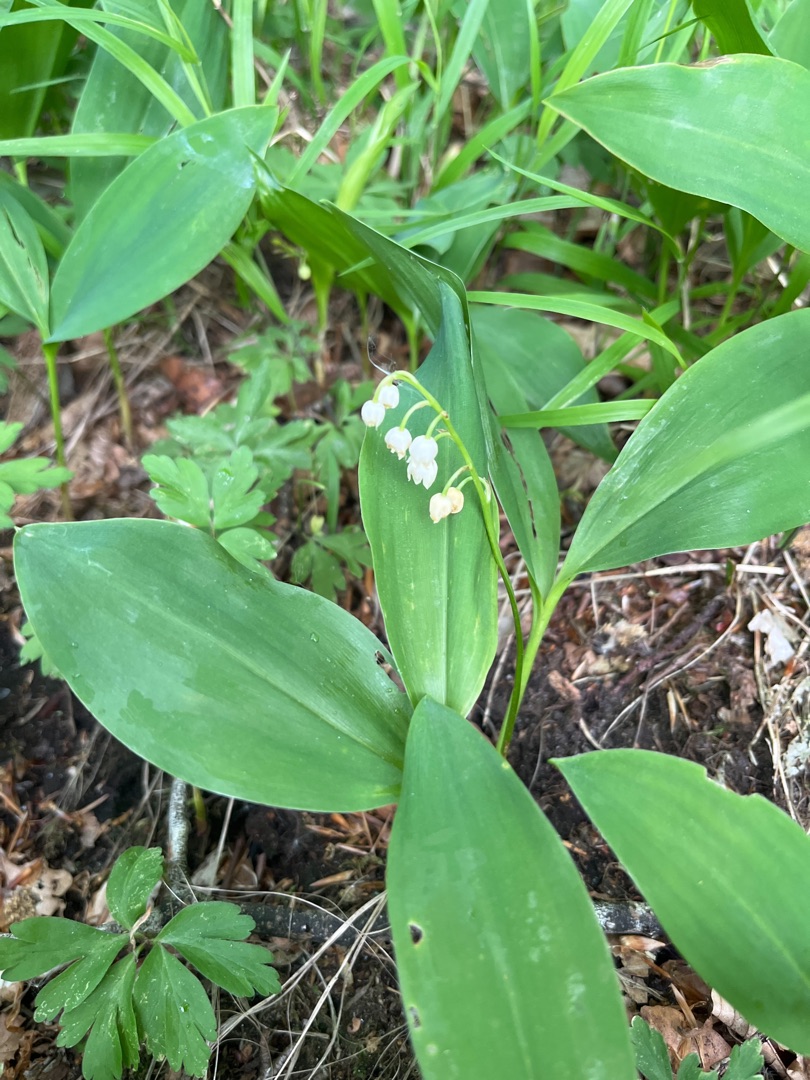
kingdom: Plantae
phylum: Tracheophyta
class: Liliopsida
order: Asparagales
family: Asparagaceae
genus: Convallaria
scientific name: Convallaria majalis
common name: Liljekonval
